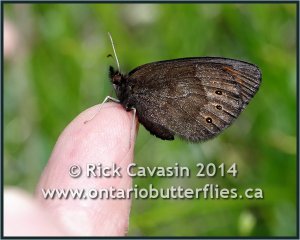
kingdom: Animalia
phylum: Arthropoda
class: Insecta
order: Lepidoptera
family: Nymphalidae
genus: Erebia
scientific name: Erebia epipsodea
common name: Common Alpine
